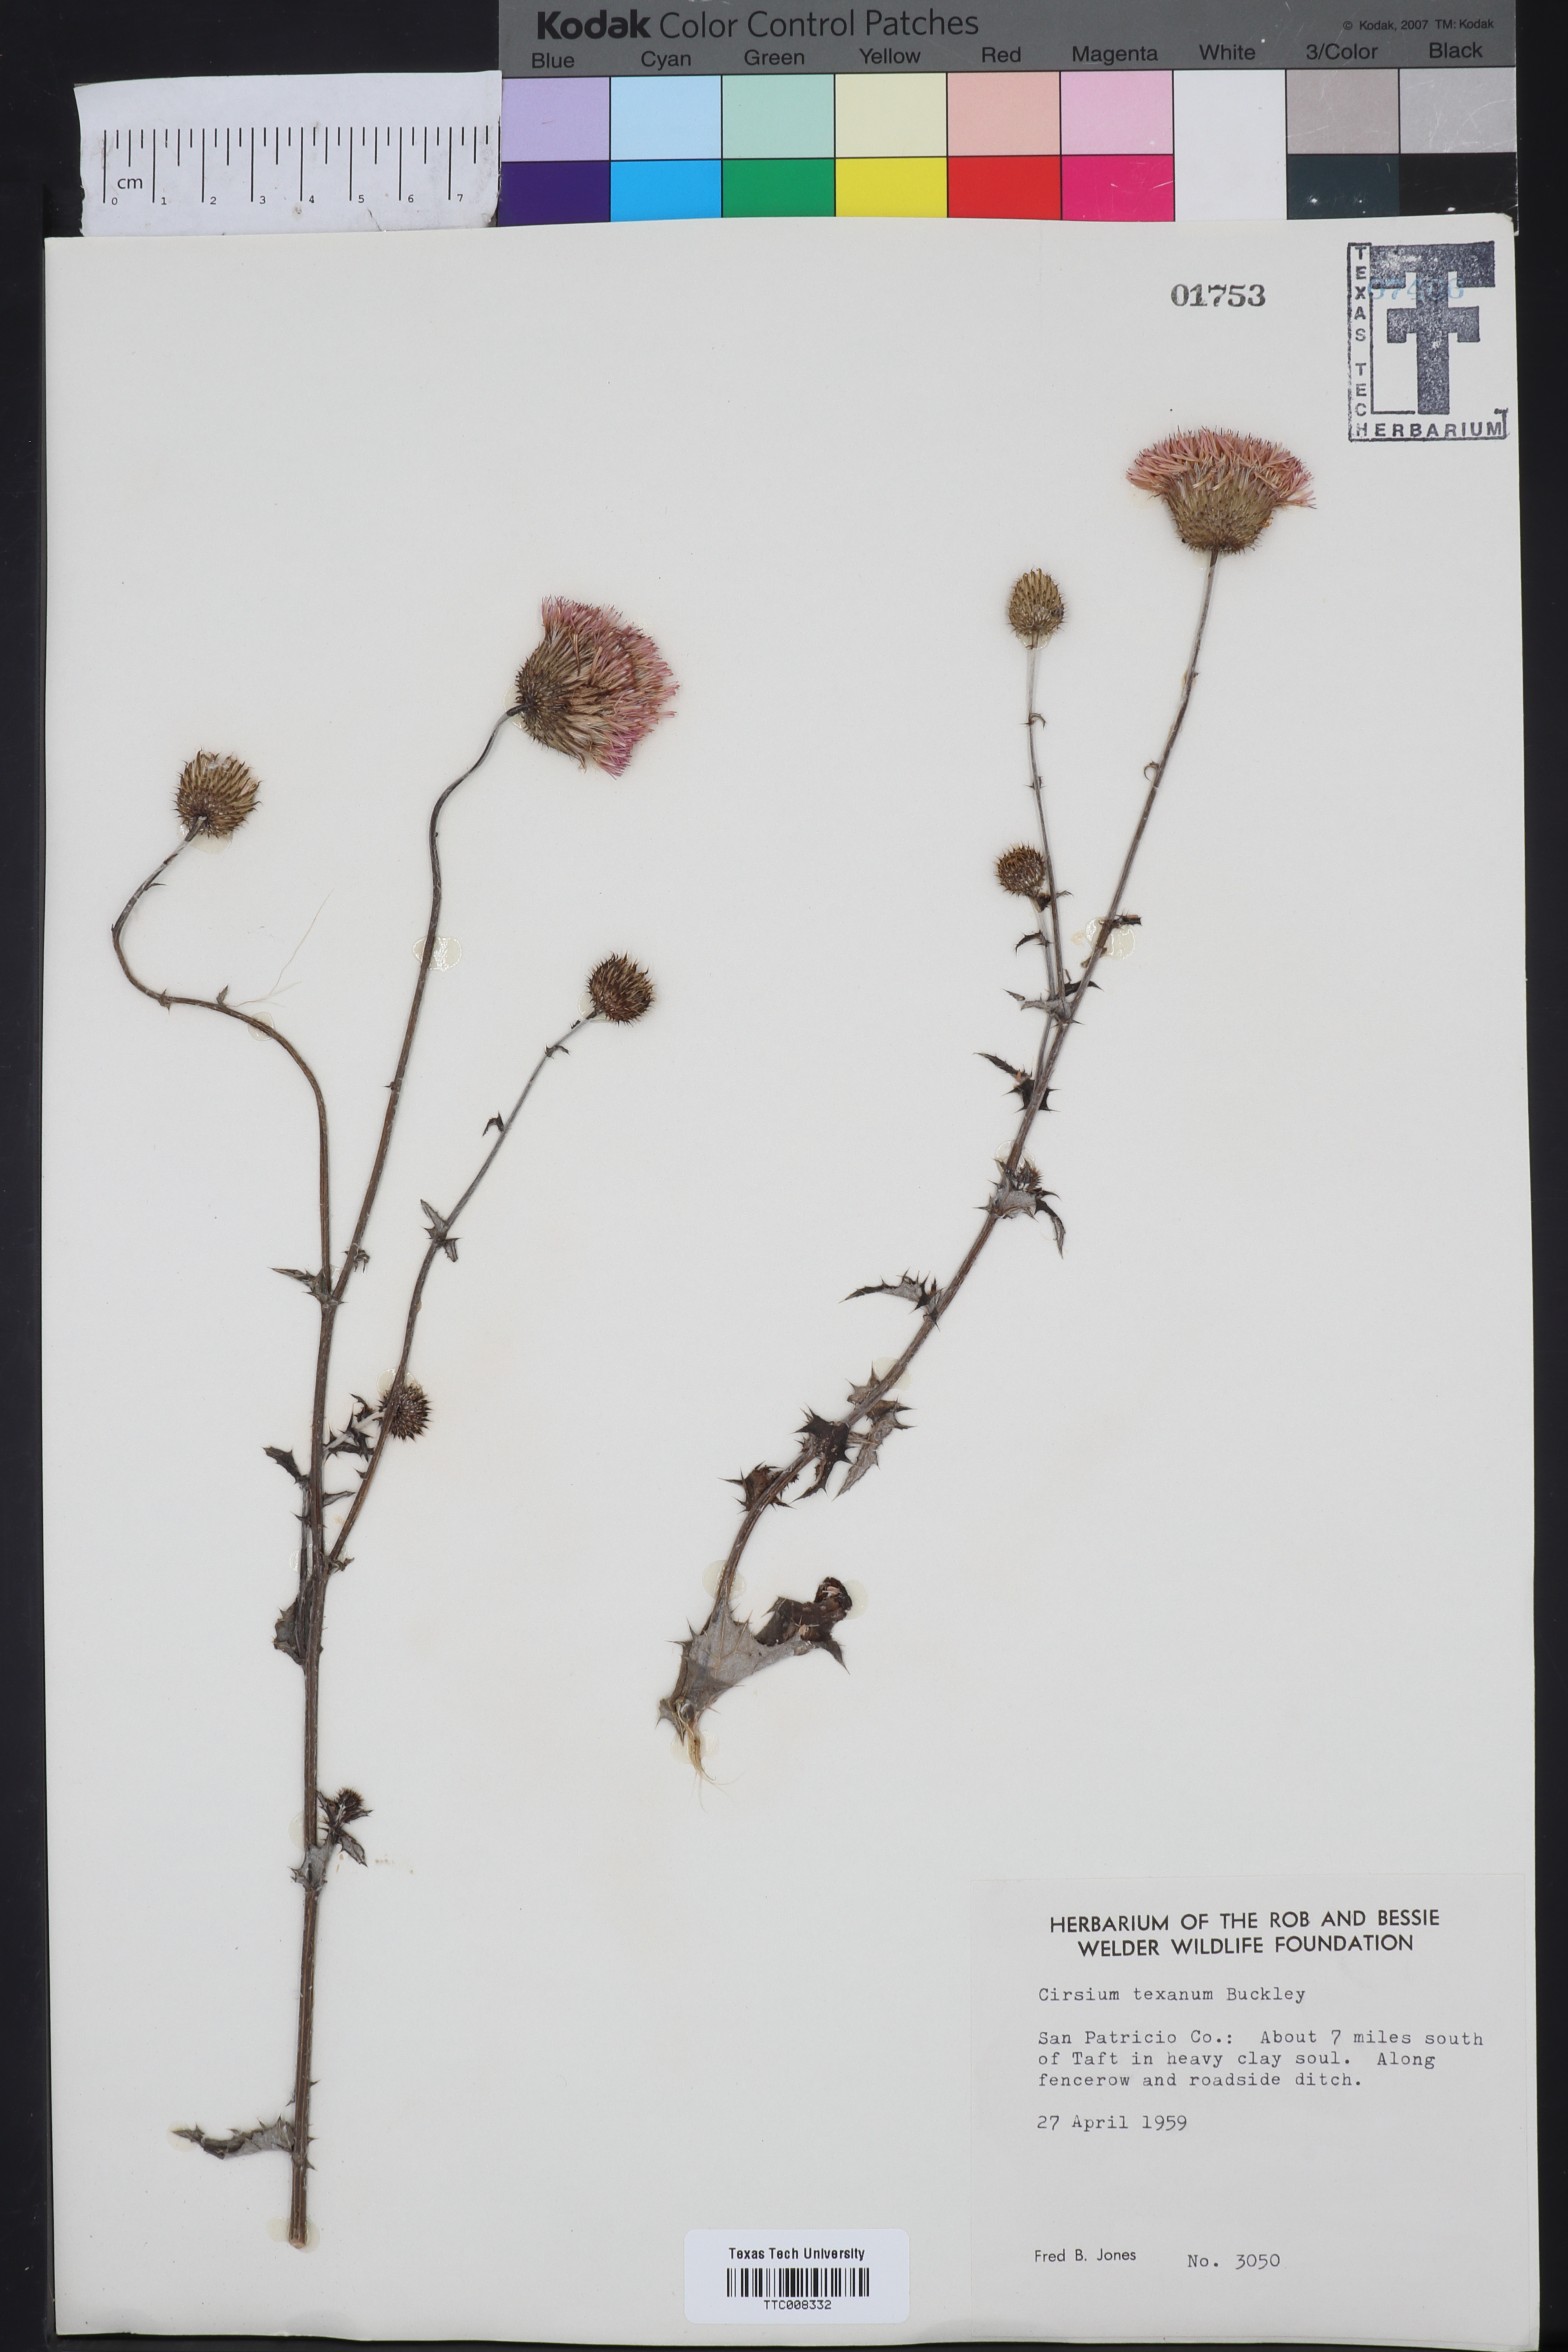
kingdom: Plantae
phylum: Tracheophyta
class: Magnoliopsida
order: Asterales
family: Asteraceae
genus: Cirsium
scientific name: Cirsium texanum
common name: Texas purple thistle
